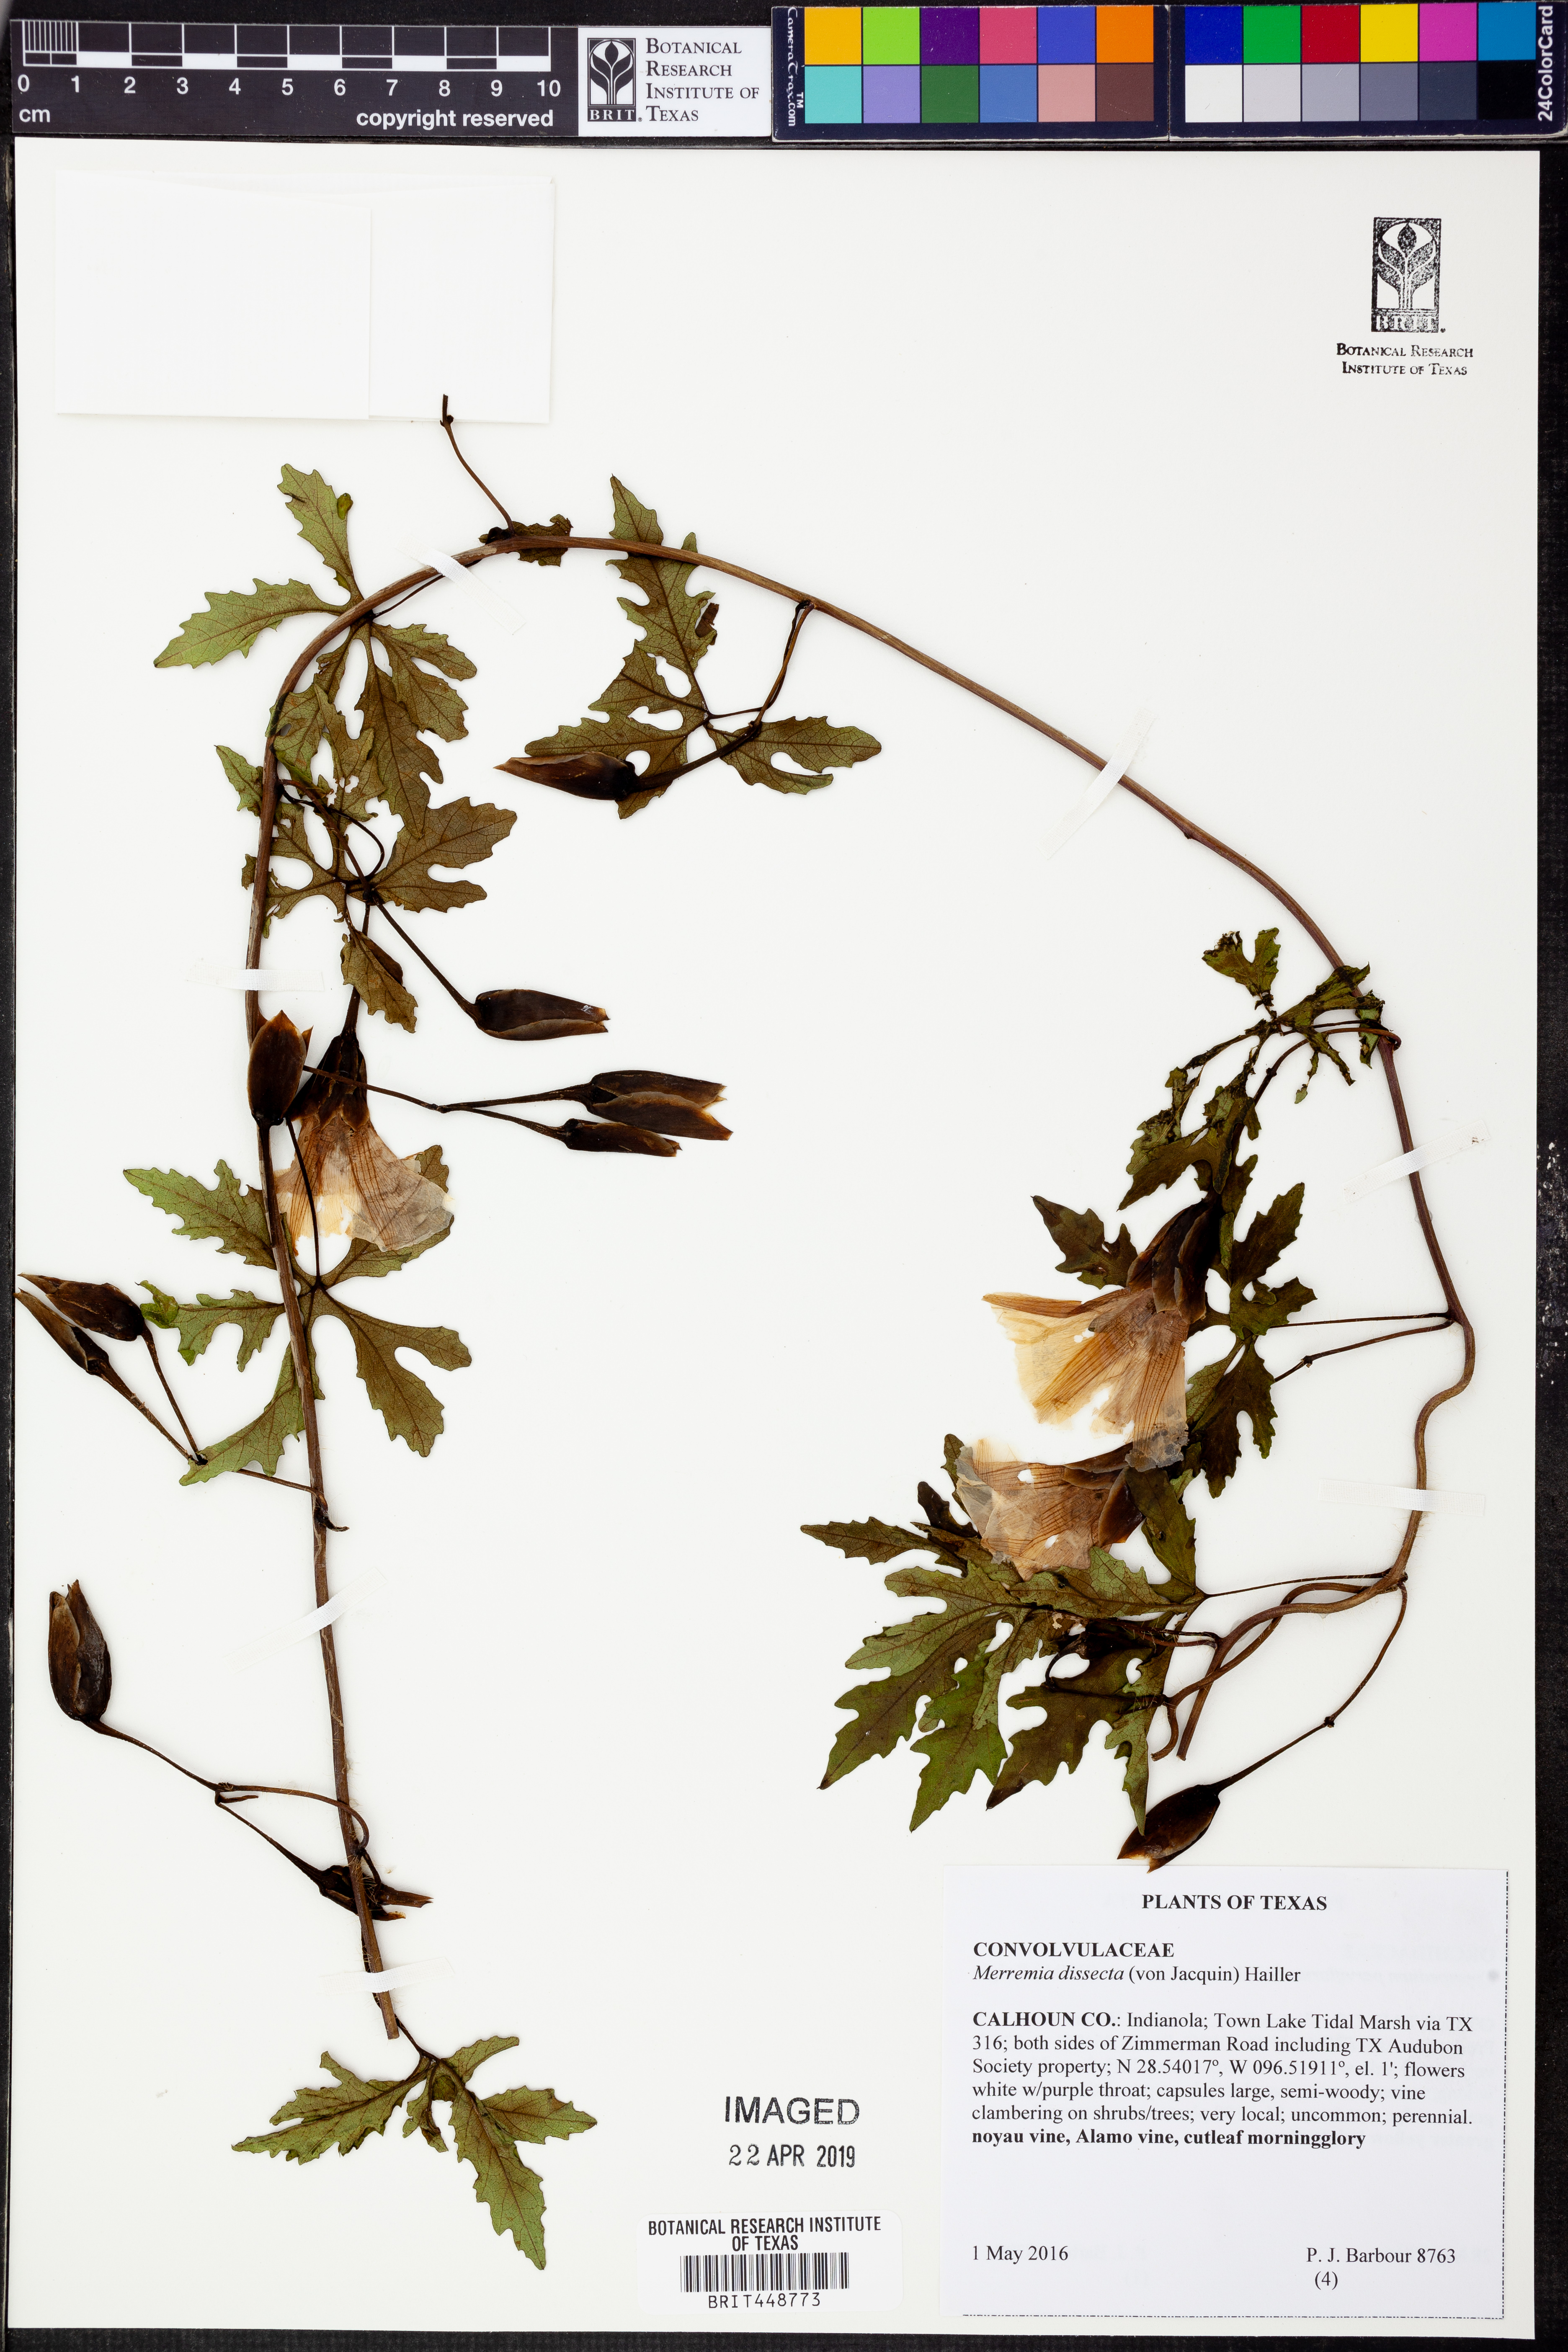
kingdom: Plantae
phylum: Tracheophyta
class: Magnoliopsida
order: Solanales
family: Convolvulaceae
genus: Distimake
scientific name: Distimake dissectus
